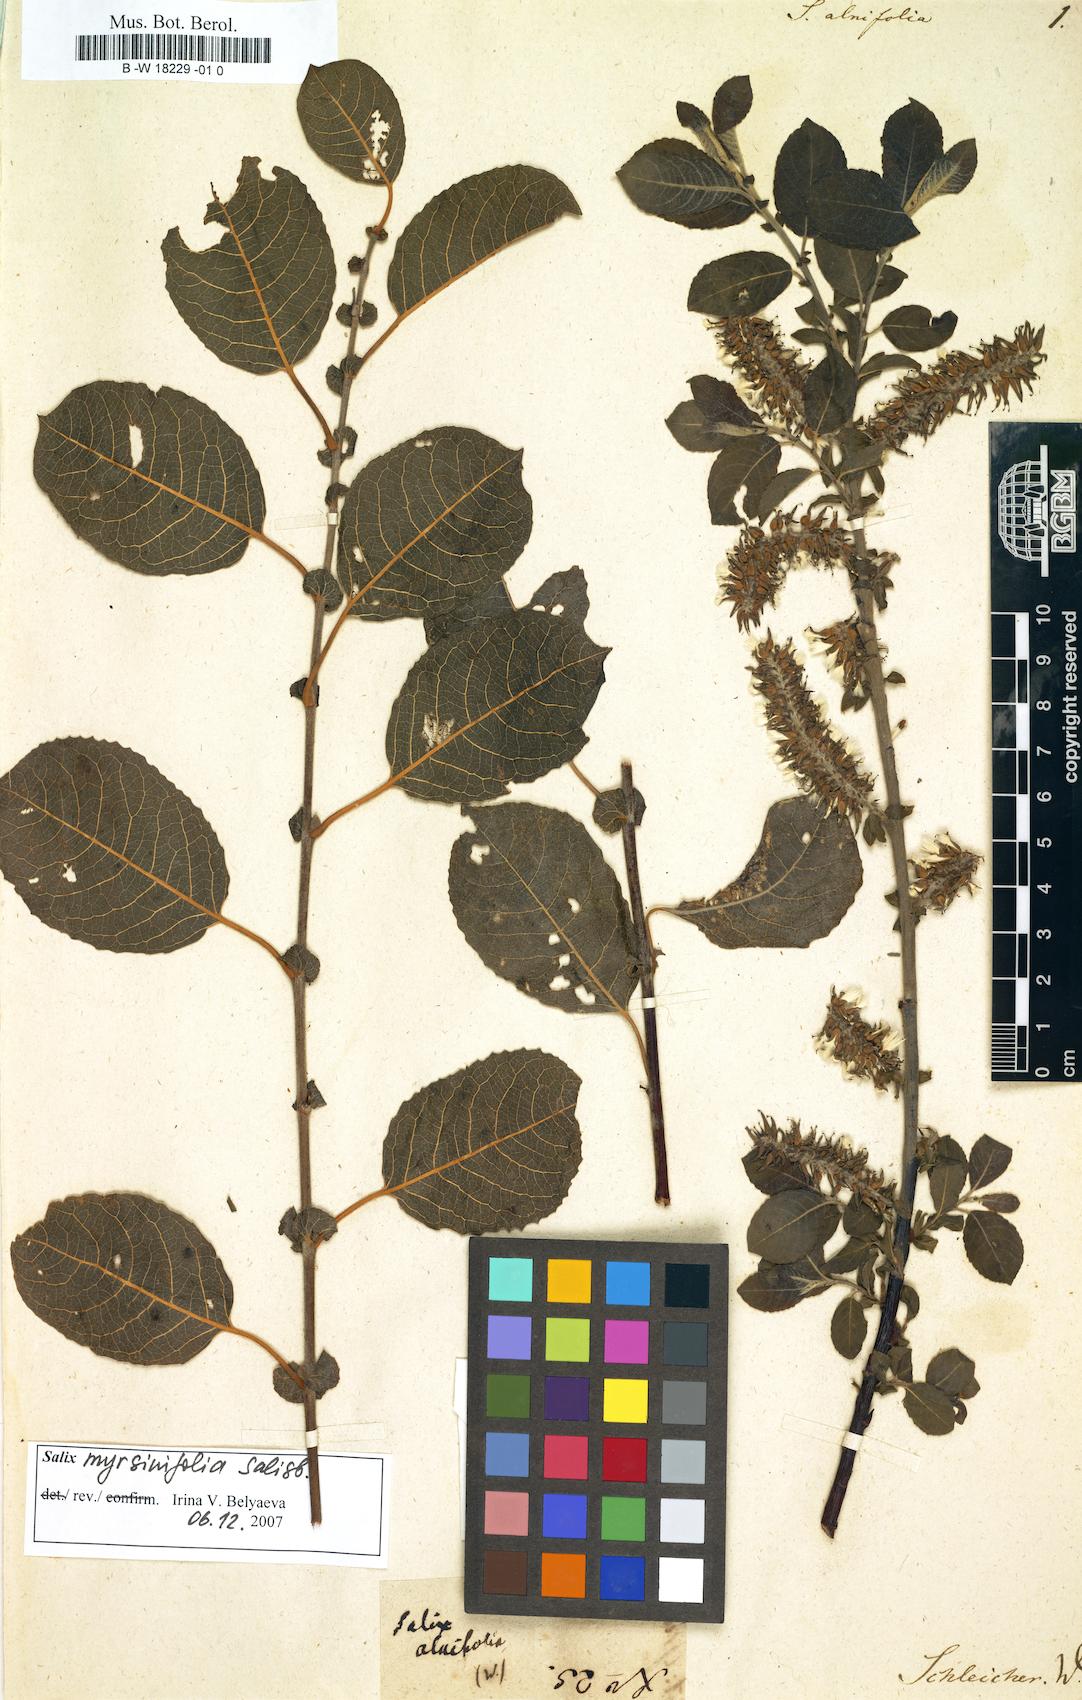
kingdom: Plantae
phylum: Tracheophyta
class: Magnoliopsida
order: Malpighiales
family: Salicaceae
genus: Salix
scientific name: Salix
